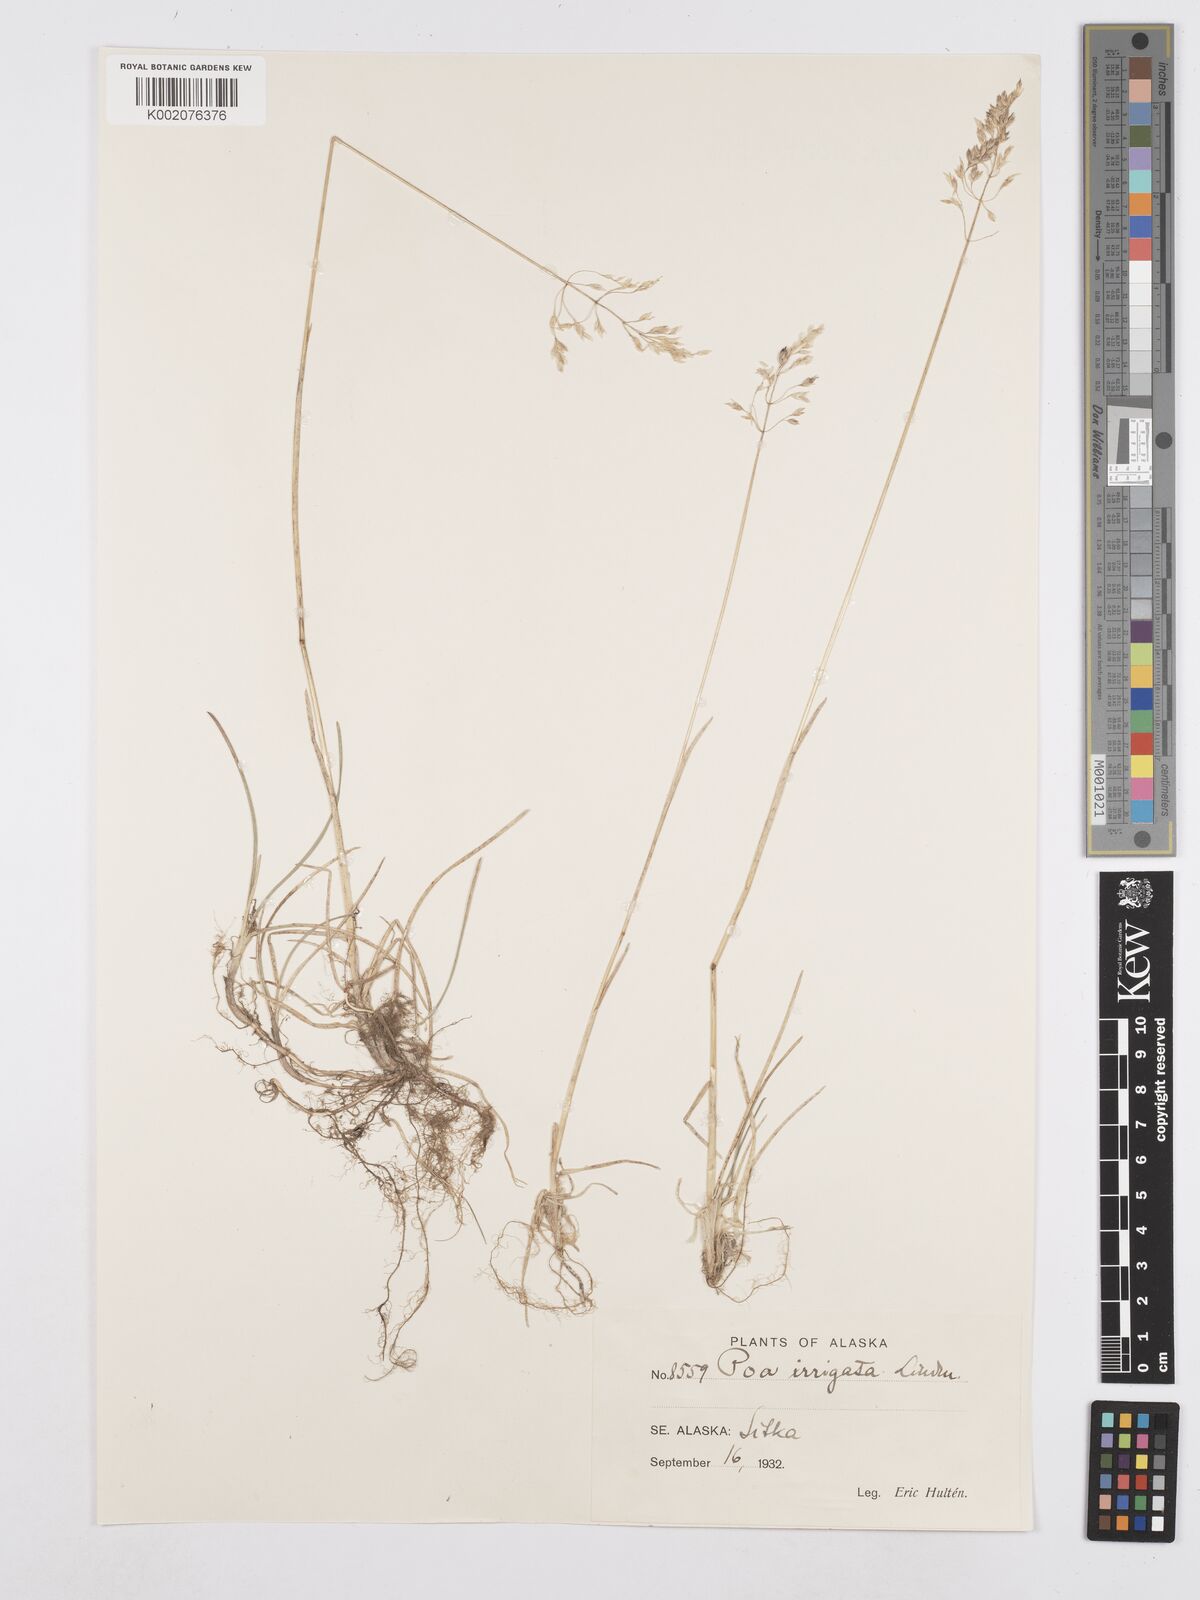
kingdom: Plantae
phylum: Tracheophyta
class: Liliopsida
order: Poales
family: Poaceae
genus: Poa
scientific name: Poa alpigena
